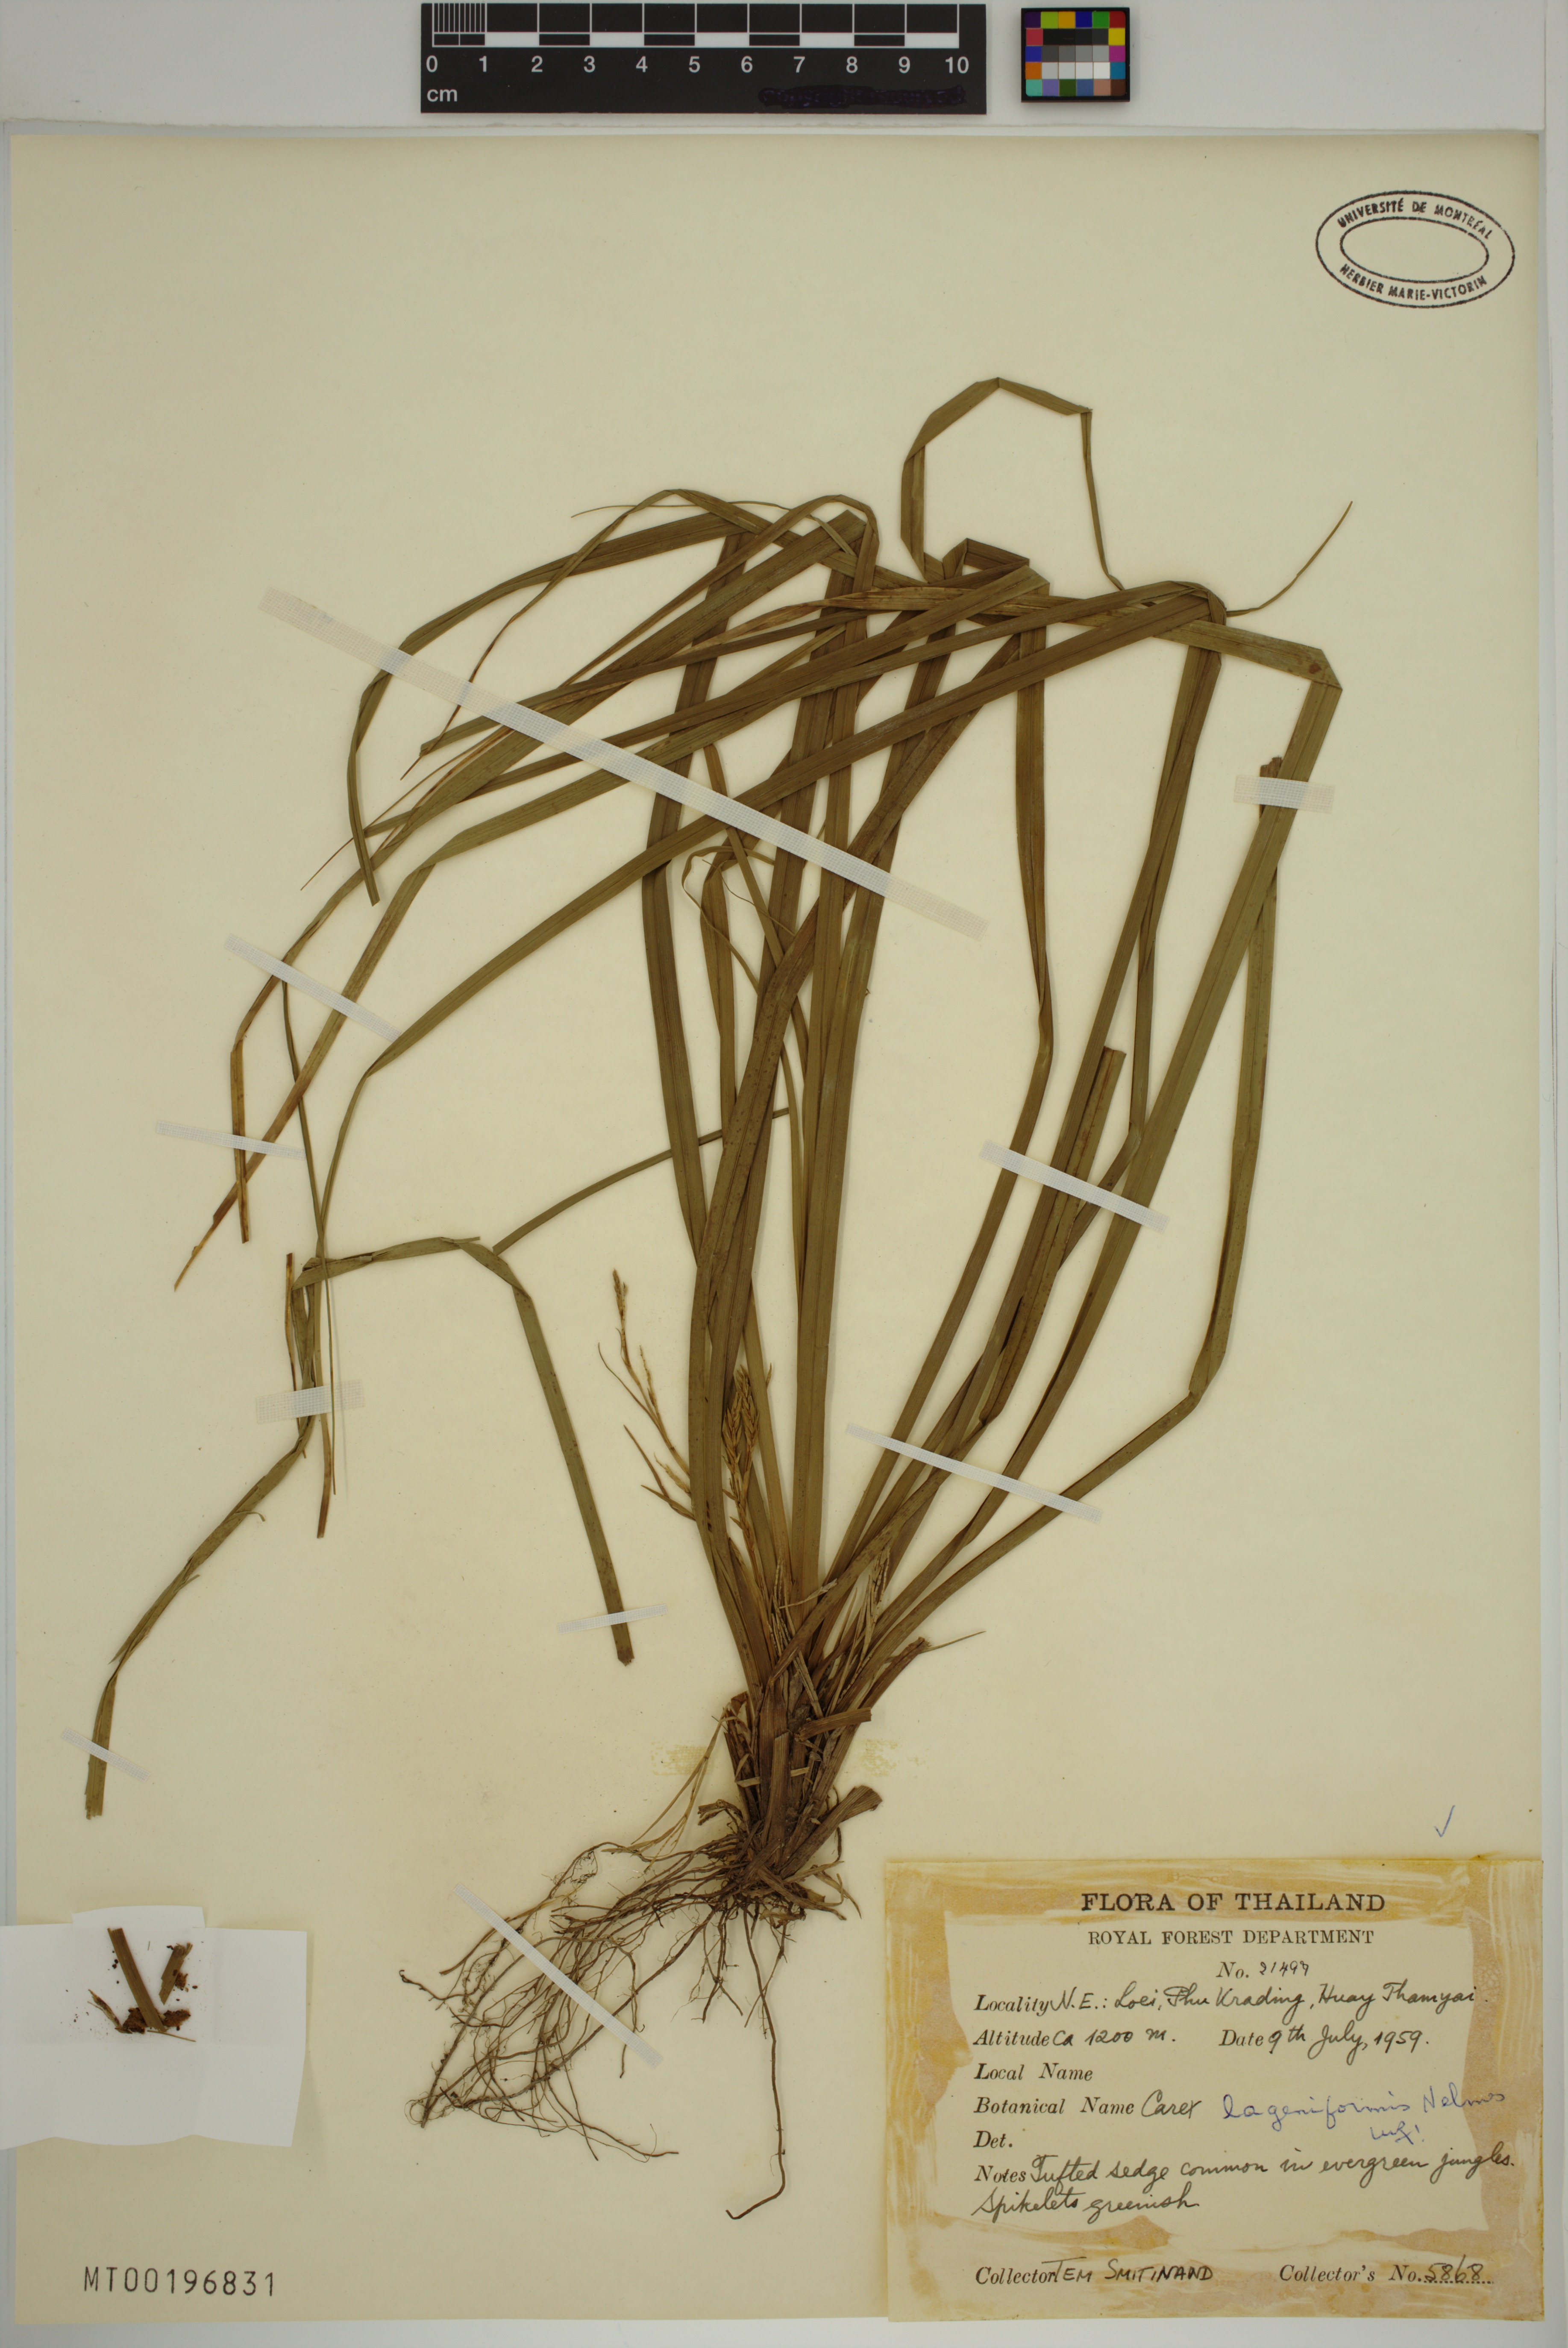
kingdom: Plantae
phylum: Tracheophyta
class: Liliopsida
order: Poales
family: Cyperaceae
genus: Carex
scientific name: Carex lageniformis
